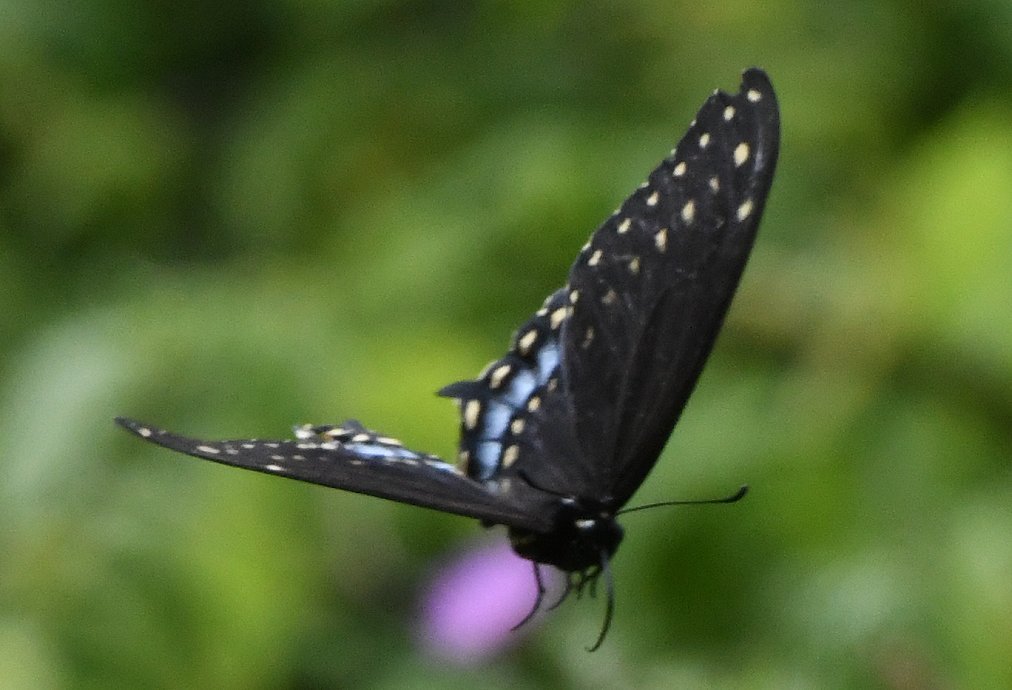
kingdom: Animalia
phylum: Arthropoda
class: Insecta
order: Lepidoptera
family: Papilionidae
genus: Papilio
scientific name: Papilio polyxenes
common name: Black Swallowtail
